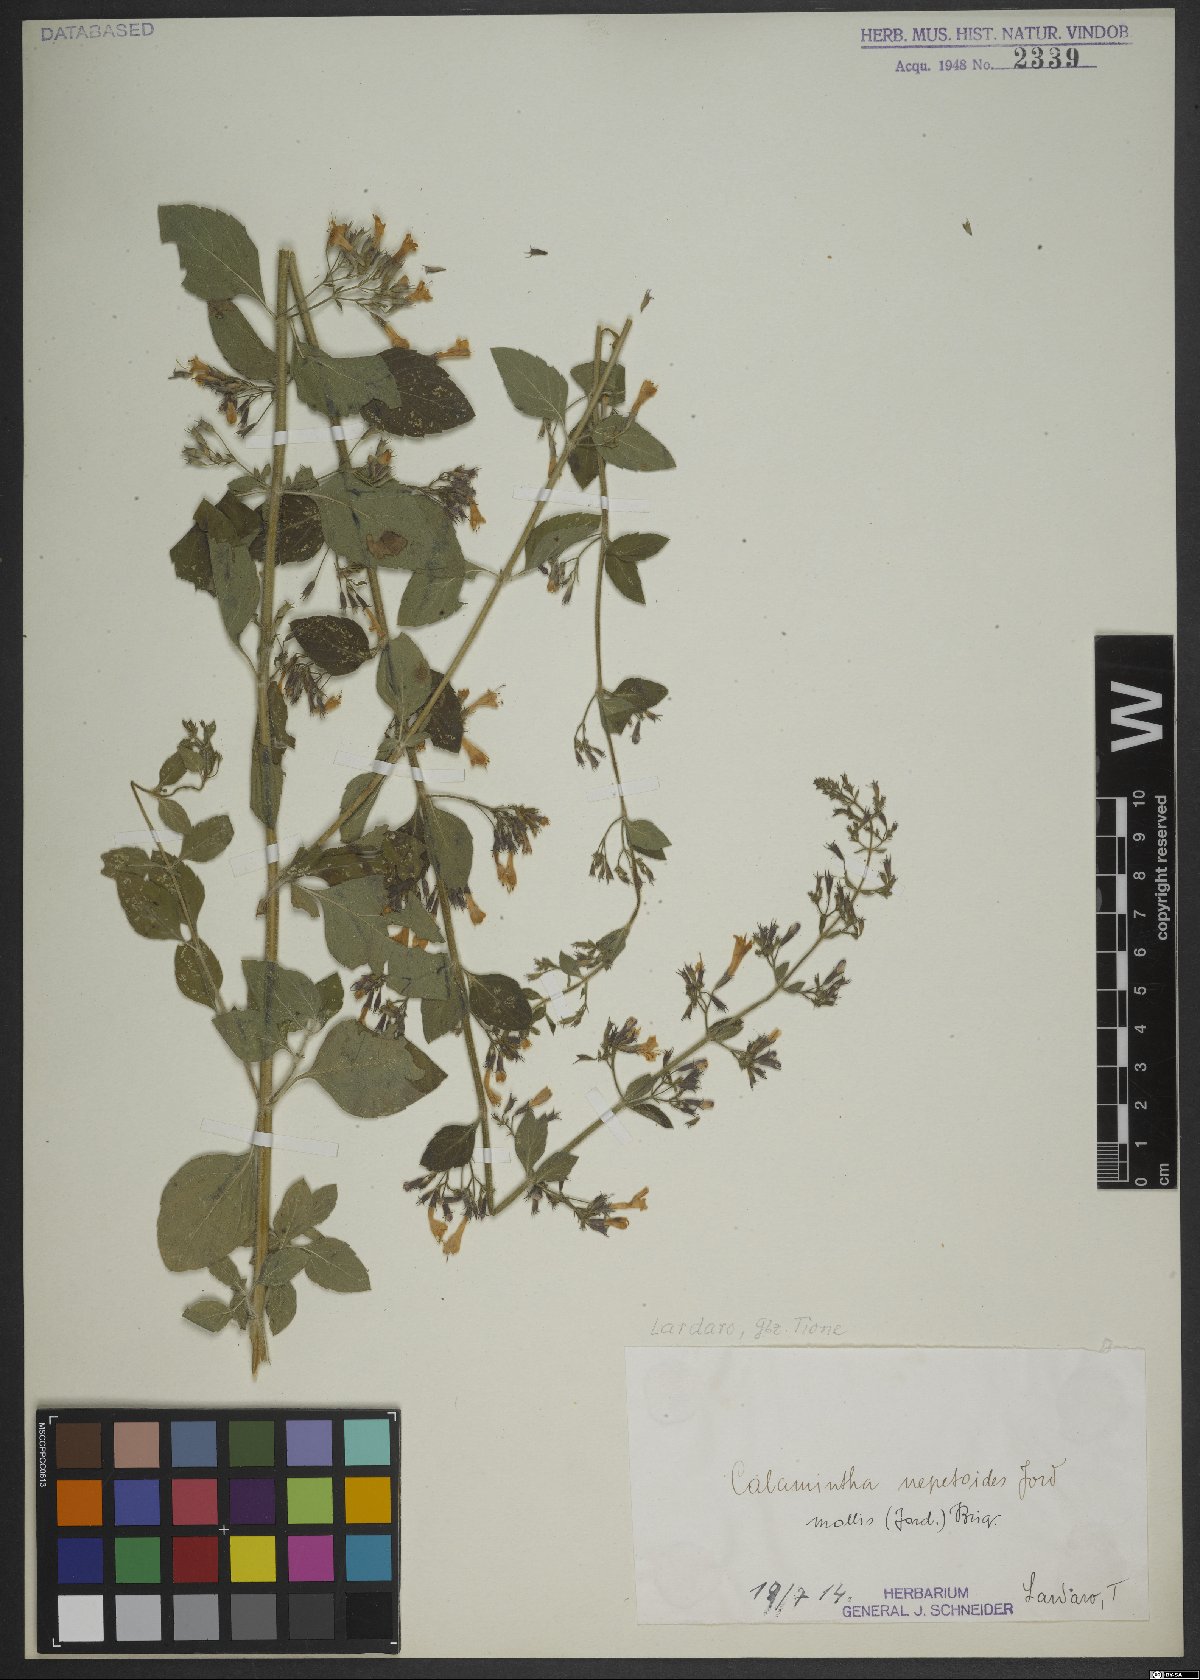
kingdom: Plantae
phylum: Tracheophyta
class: Magnoliopsida
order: Lamiales
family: Lamiaceae
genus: Clinopodium
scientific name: Clinopodium nepeta
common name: Lesser calamint
